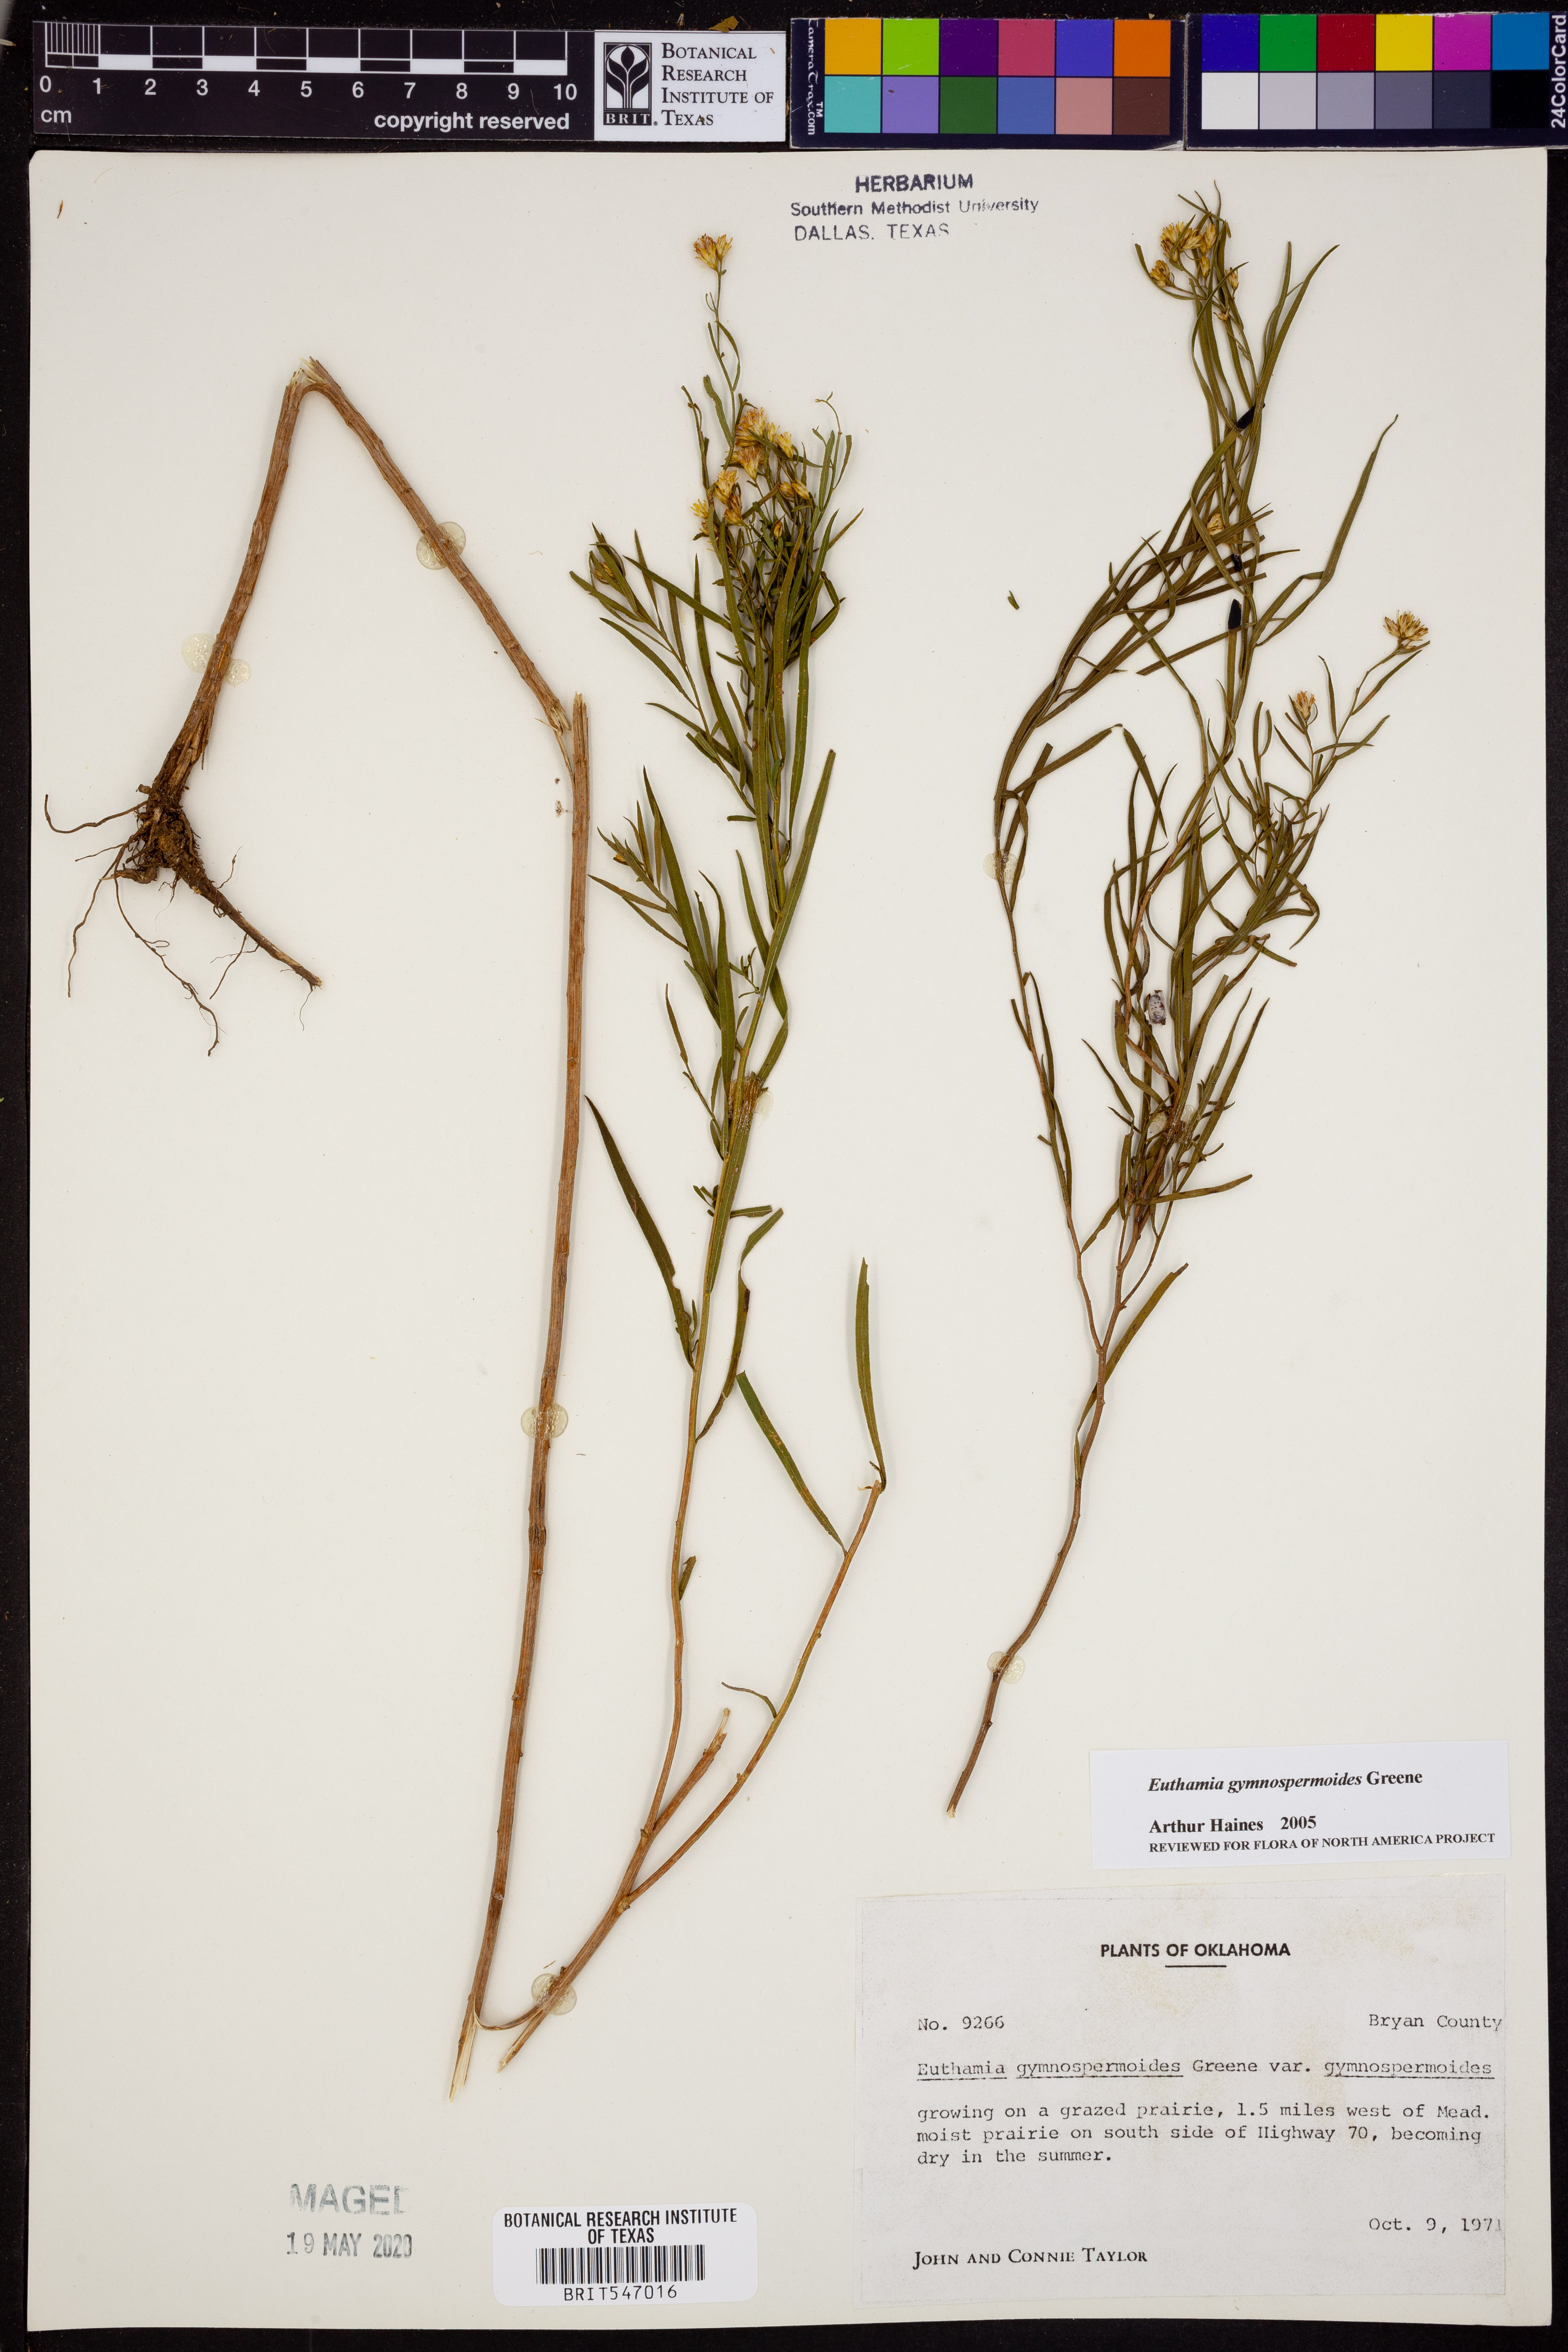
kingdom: Plantae
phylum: Tracheophyta
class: Magnoliopsida
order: Asterales
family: Asteraceae
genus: Euthamia
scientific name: Euthamia gymnospermoides
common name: Great plains goldentop
